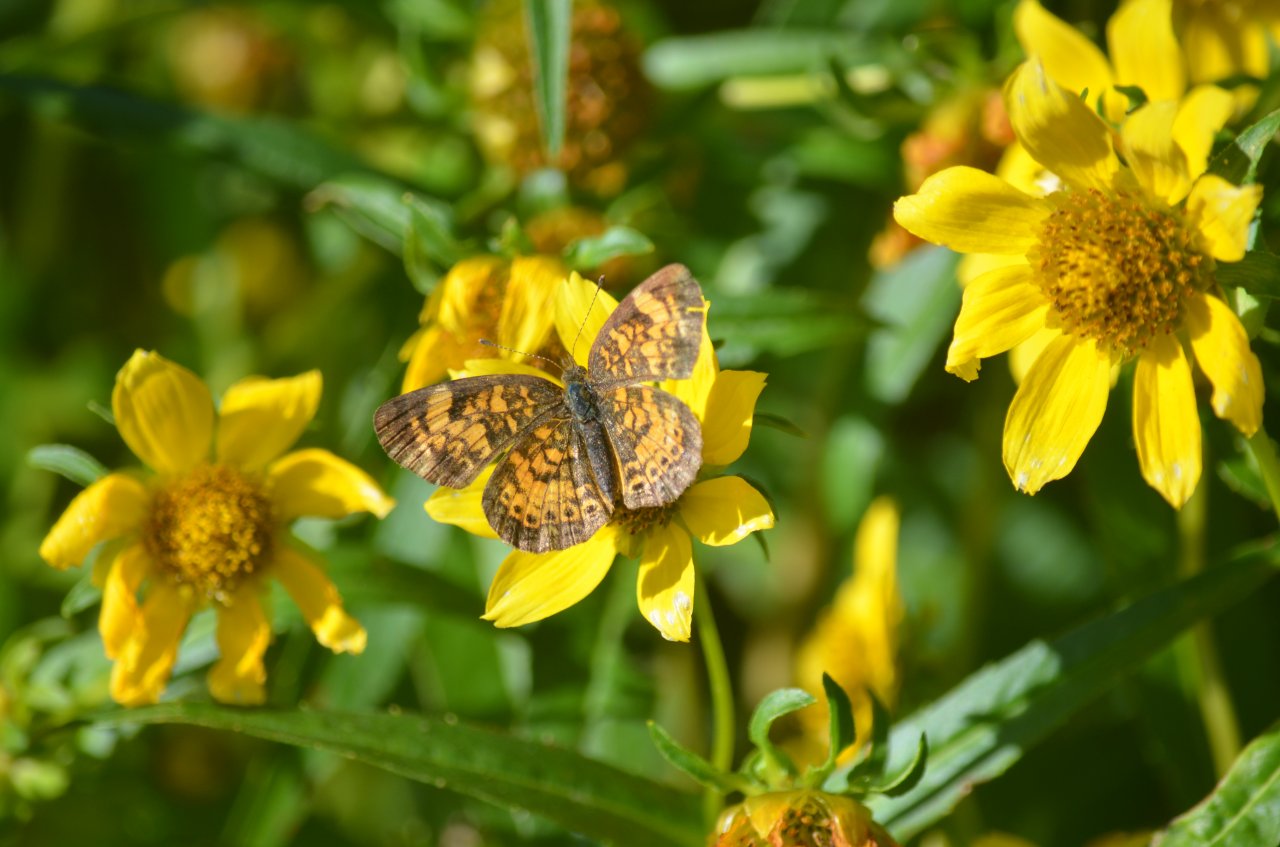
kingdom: Animalia
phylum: Arthropoda
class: Insecta
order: Lepidoptera
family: Nymphalidae
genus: Phyciodes
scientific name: Phyciodes tharos
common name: Northern Crescent
